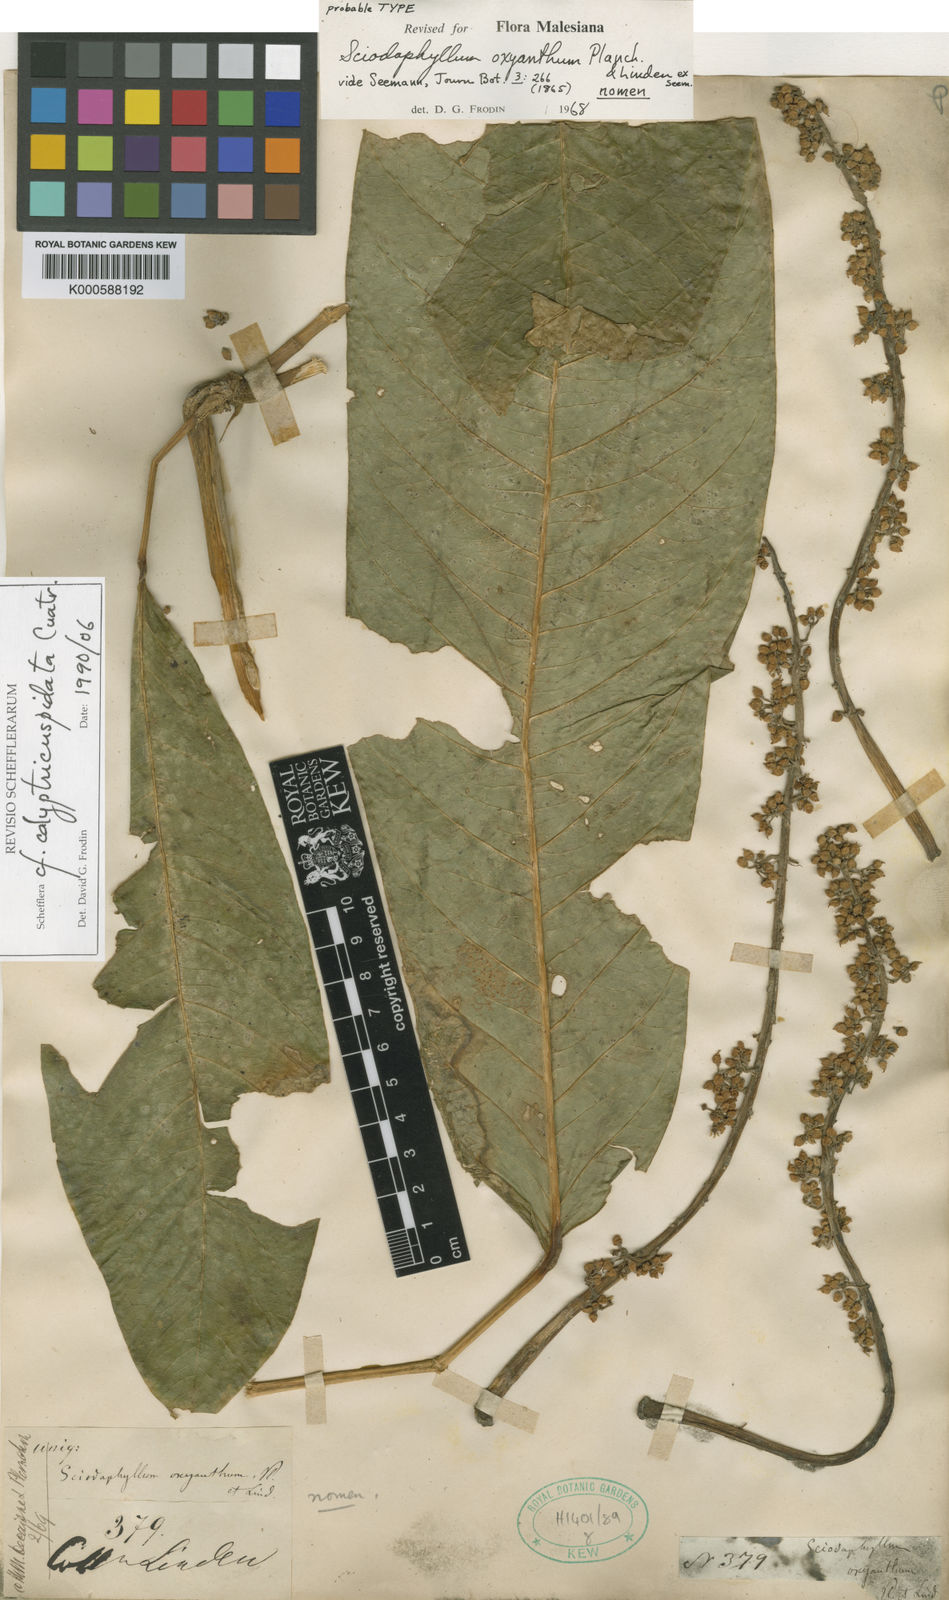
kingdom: Plantae
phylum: Tracheophyta
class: Magnoliopsida
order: Apiales
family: Araliaceae
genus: Sciodaphyllum
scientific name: Sciodaphyllum calyptricuspidatum
